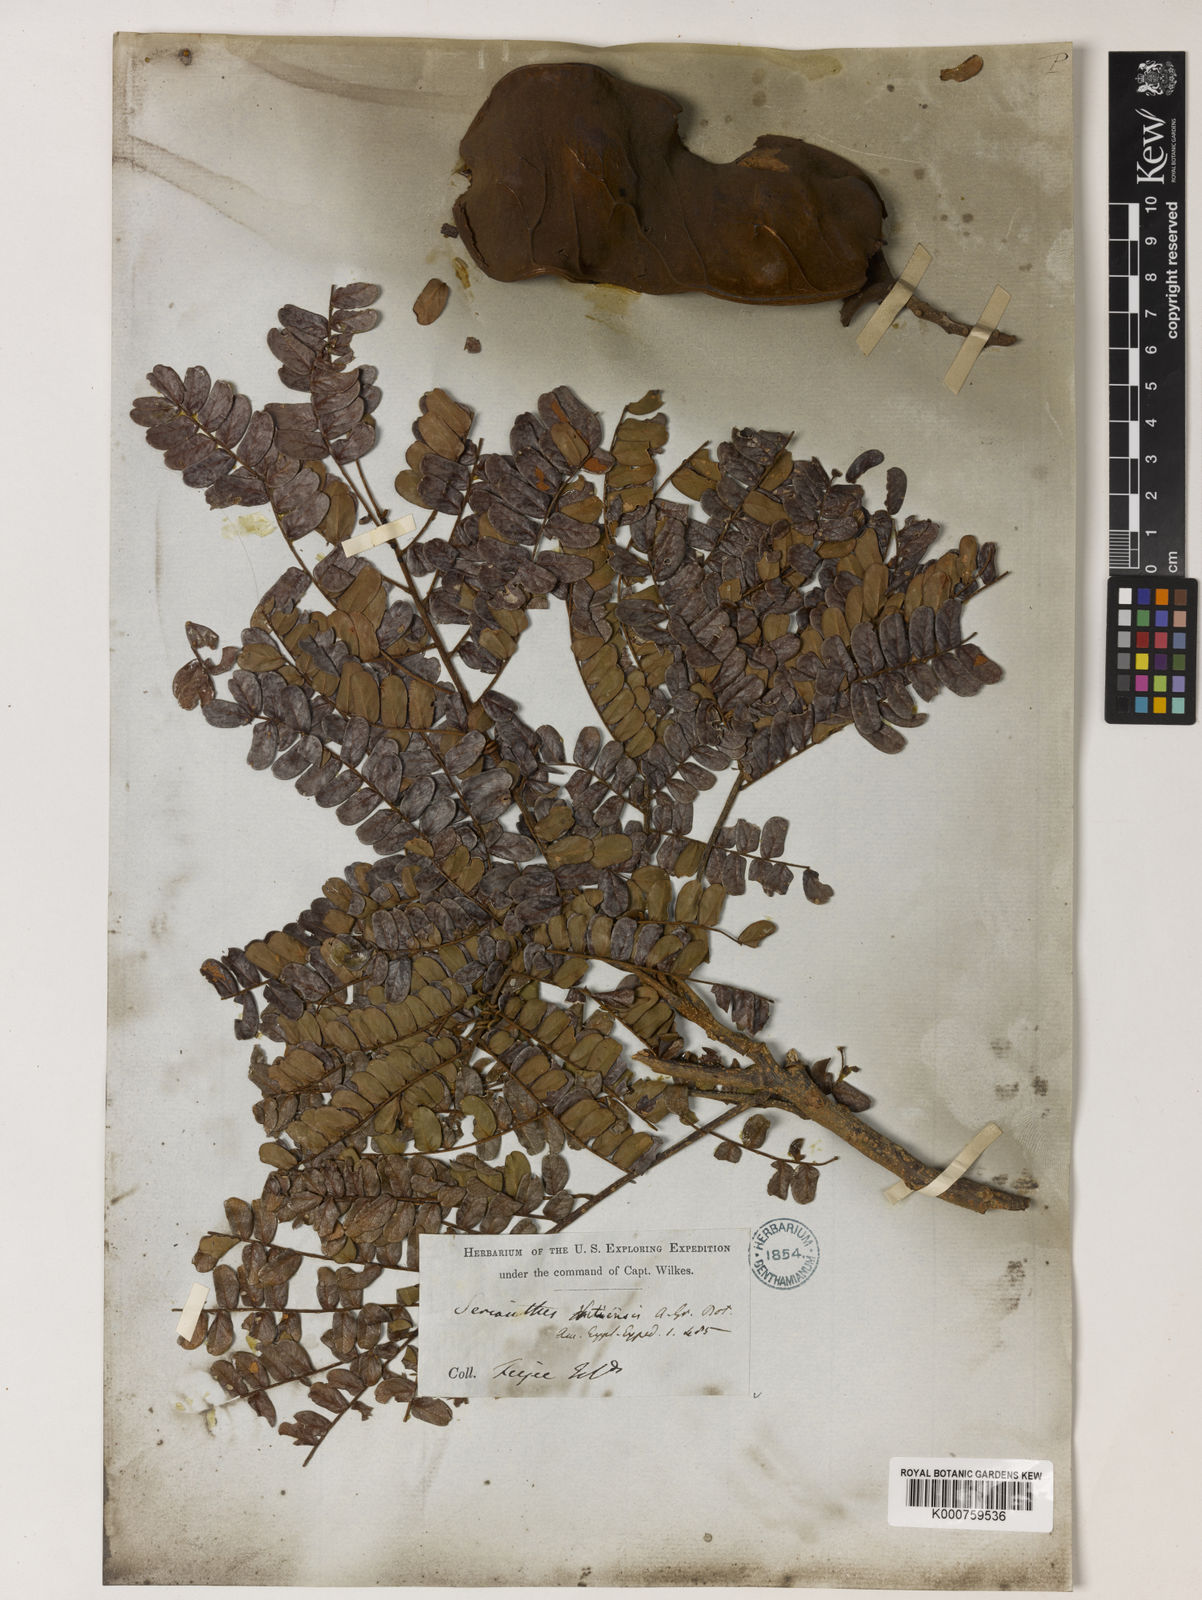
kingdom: Plantae
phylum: Tracheophyta
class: Magnoliopsida
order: Fabales
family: Fabaceae
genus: Serianthes
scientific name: Serianthes vitiensis
